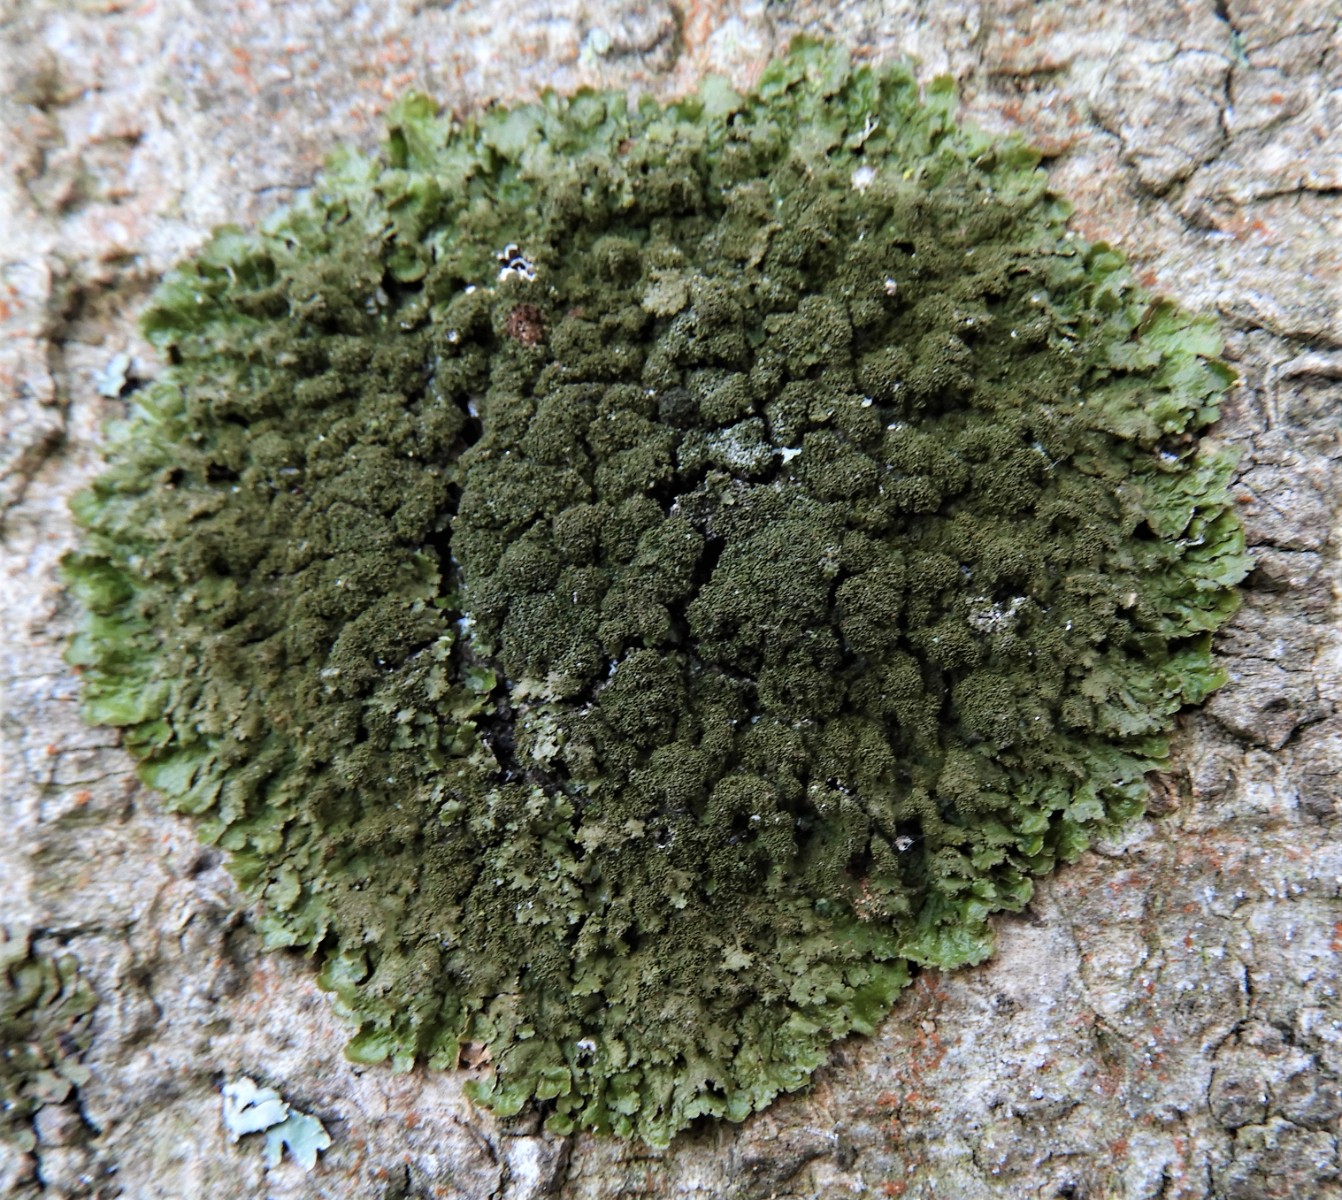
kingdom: Fungi
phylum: Ascomycota
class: Lecanoromycetes
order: Lecanorales
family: Parmeliaceae
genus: Melanelixia
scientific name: Melanelixia glabratula
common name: glinsende skållav
